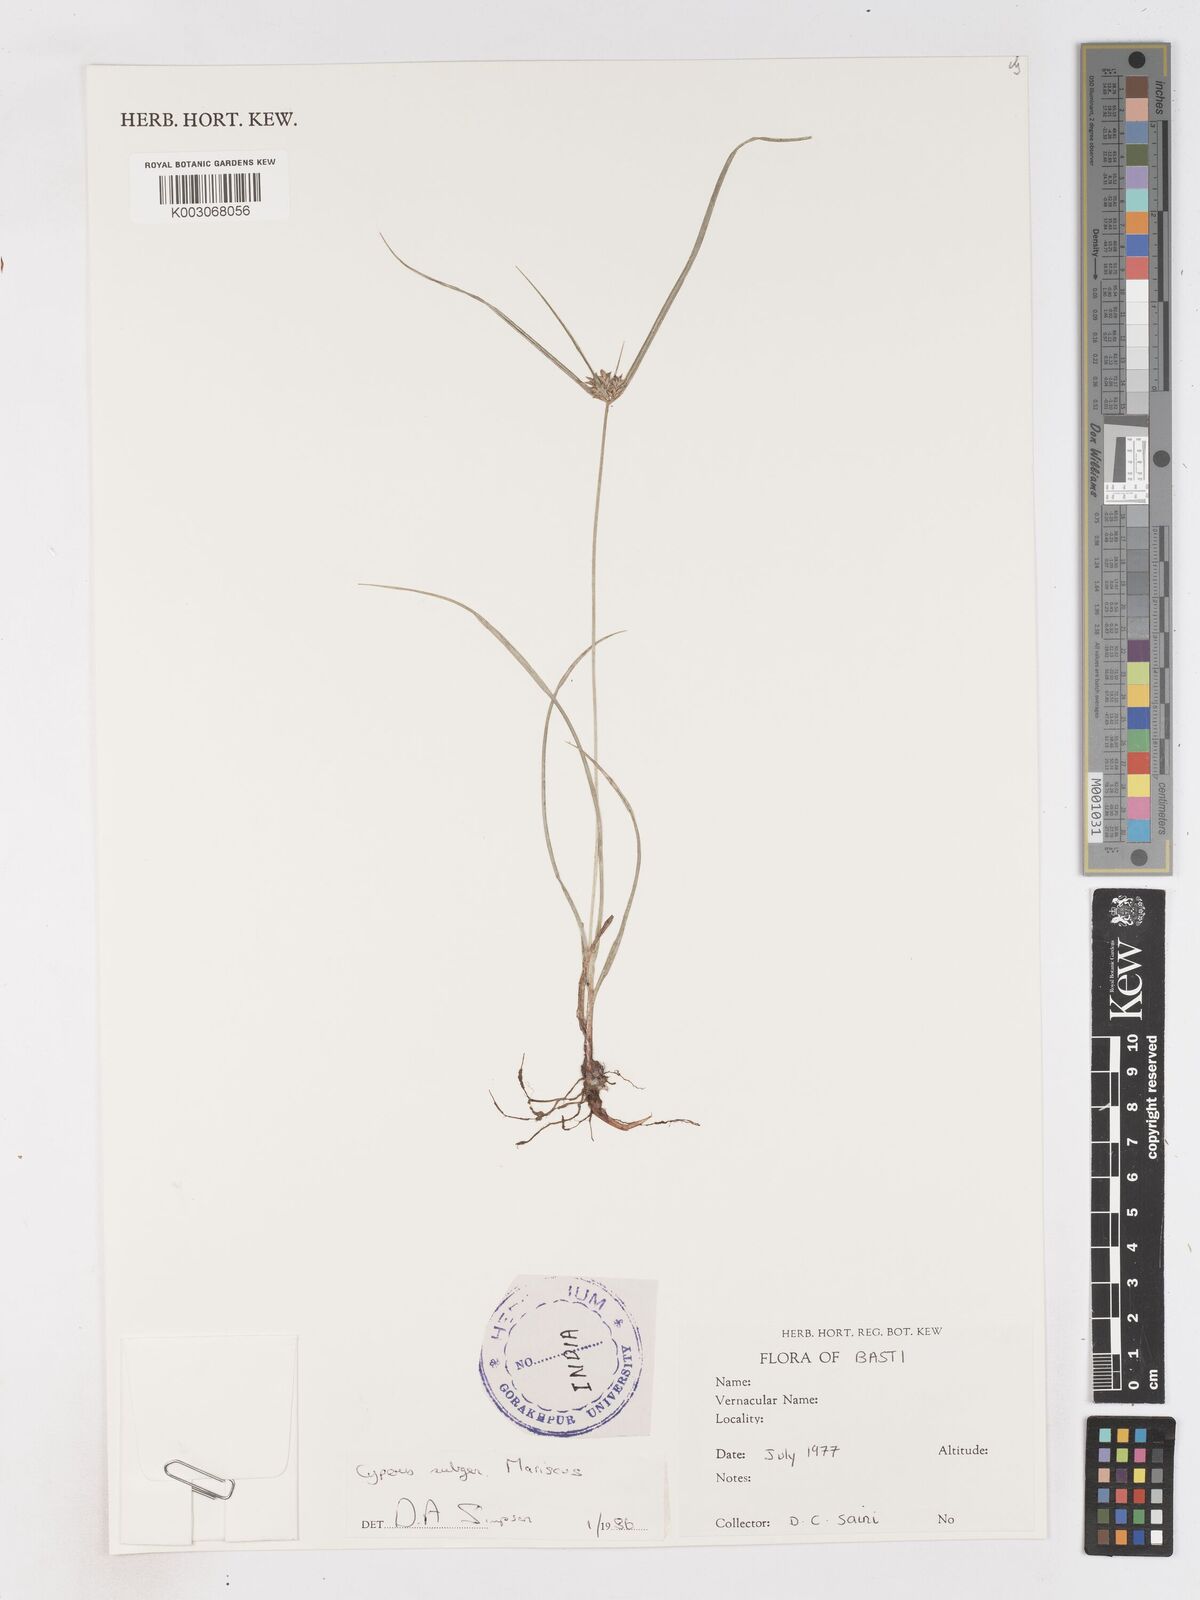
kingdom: Plantae
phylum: Tracheophyta
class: Liliopsida
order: Poales
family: Cyperaceae
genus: Cyperus
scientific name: Cyperus
